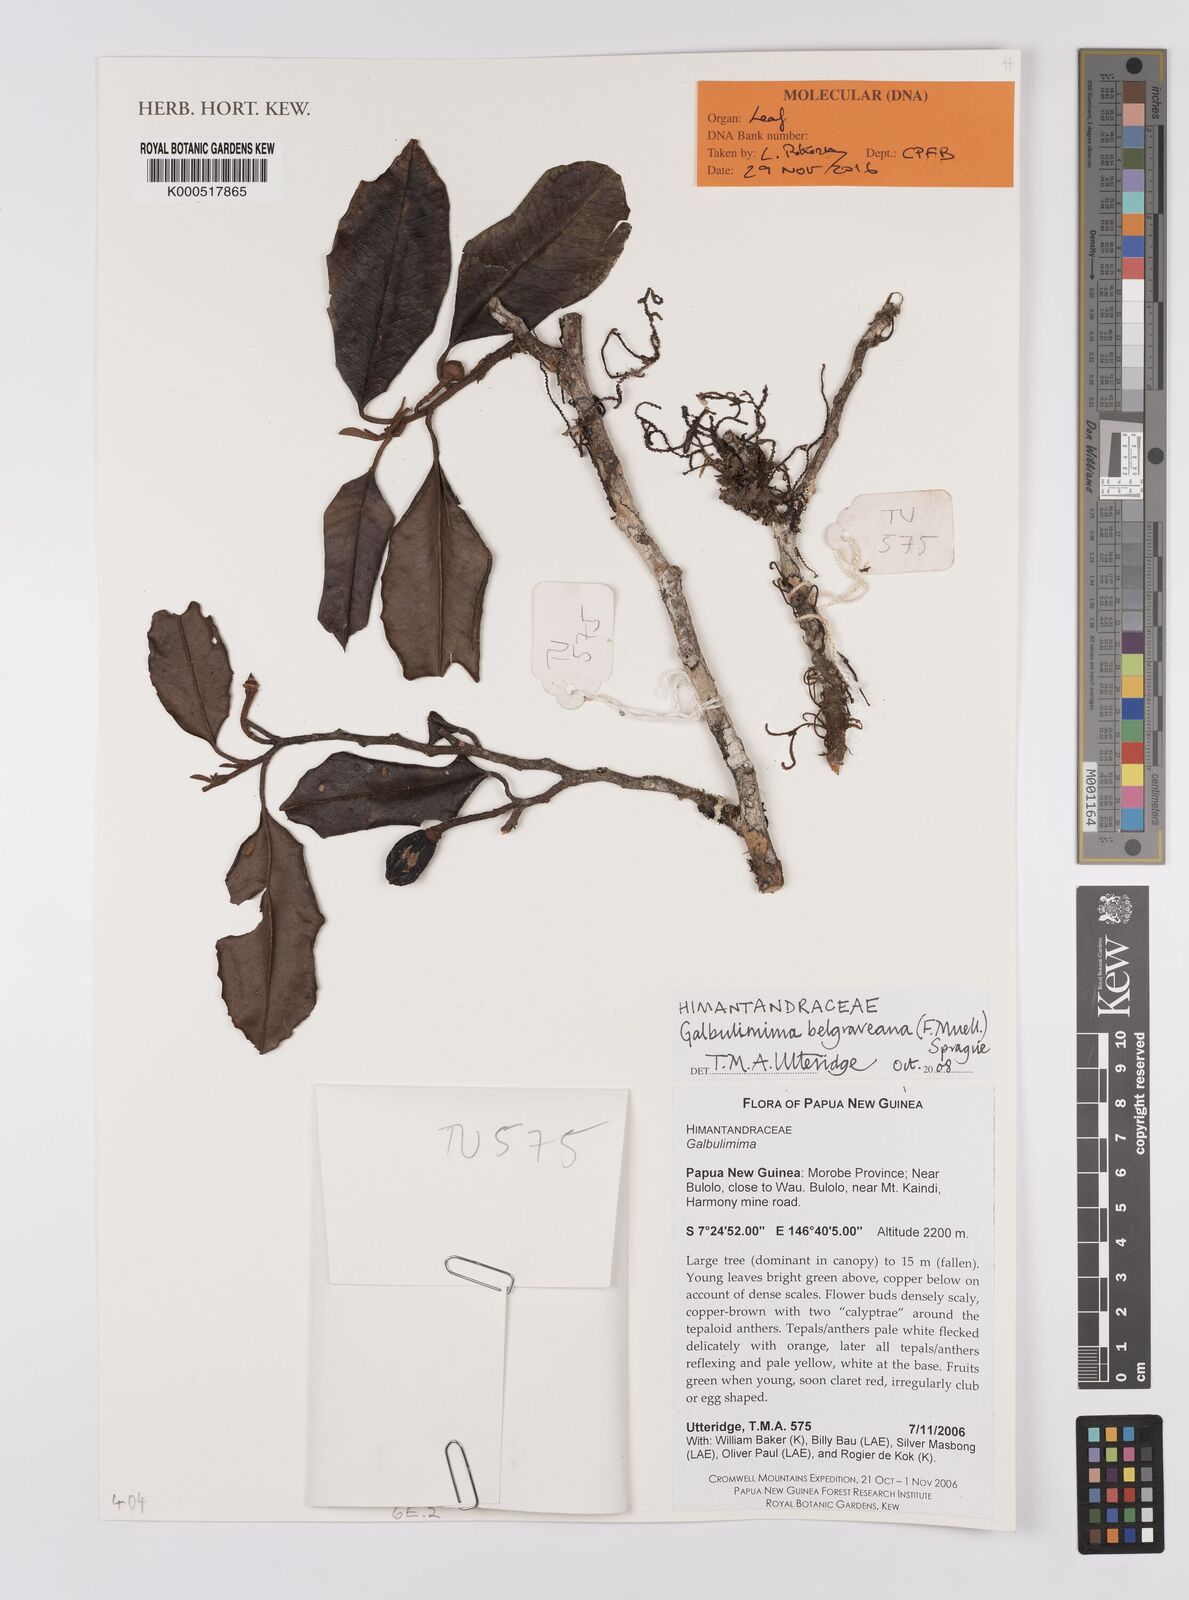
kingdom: Plantae
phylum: Tracheophyta
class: Magnoliopsida
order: Magnoliales
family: Himantandraceae
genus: Galbulimima
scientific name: Galbulimima belgraveana
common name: Northern pigeonberry-ash
